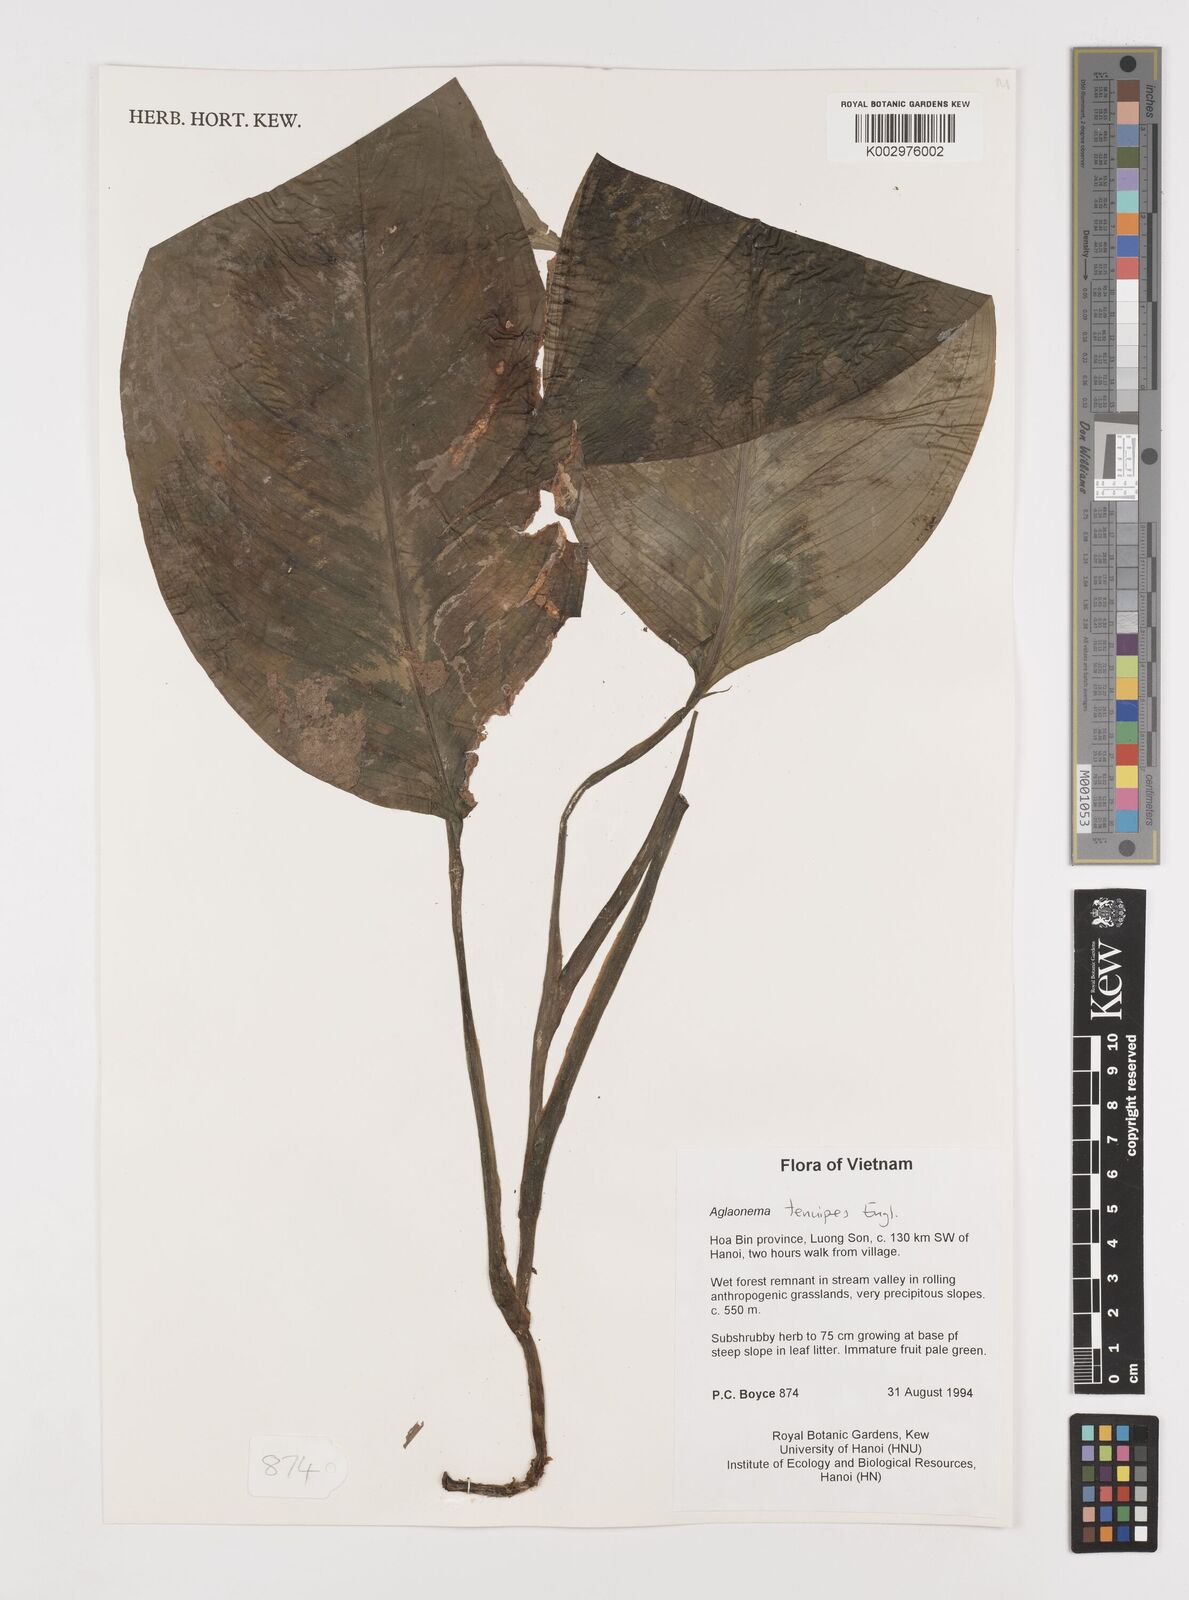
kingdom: Plantae
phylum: Tracheophyta
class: Liliopsida
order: Alismatales
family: Araceae
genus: Aglaonema
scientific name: Aglaonema simplex
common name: Malayan-sword
